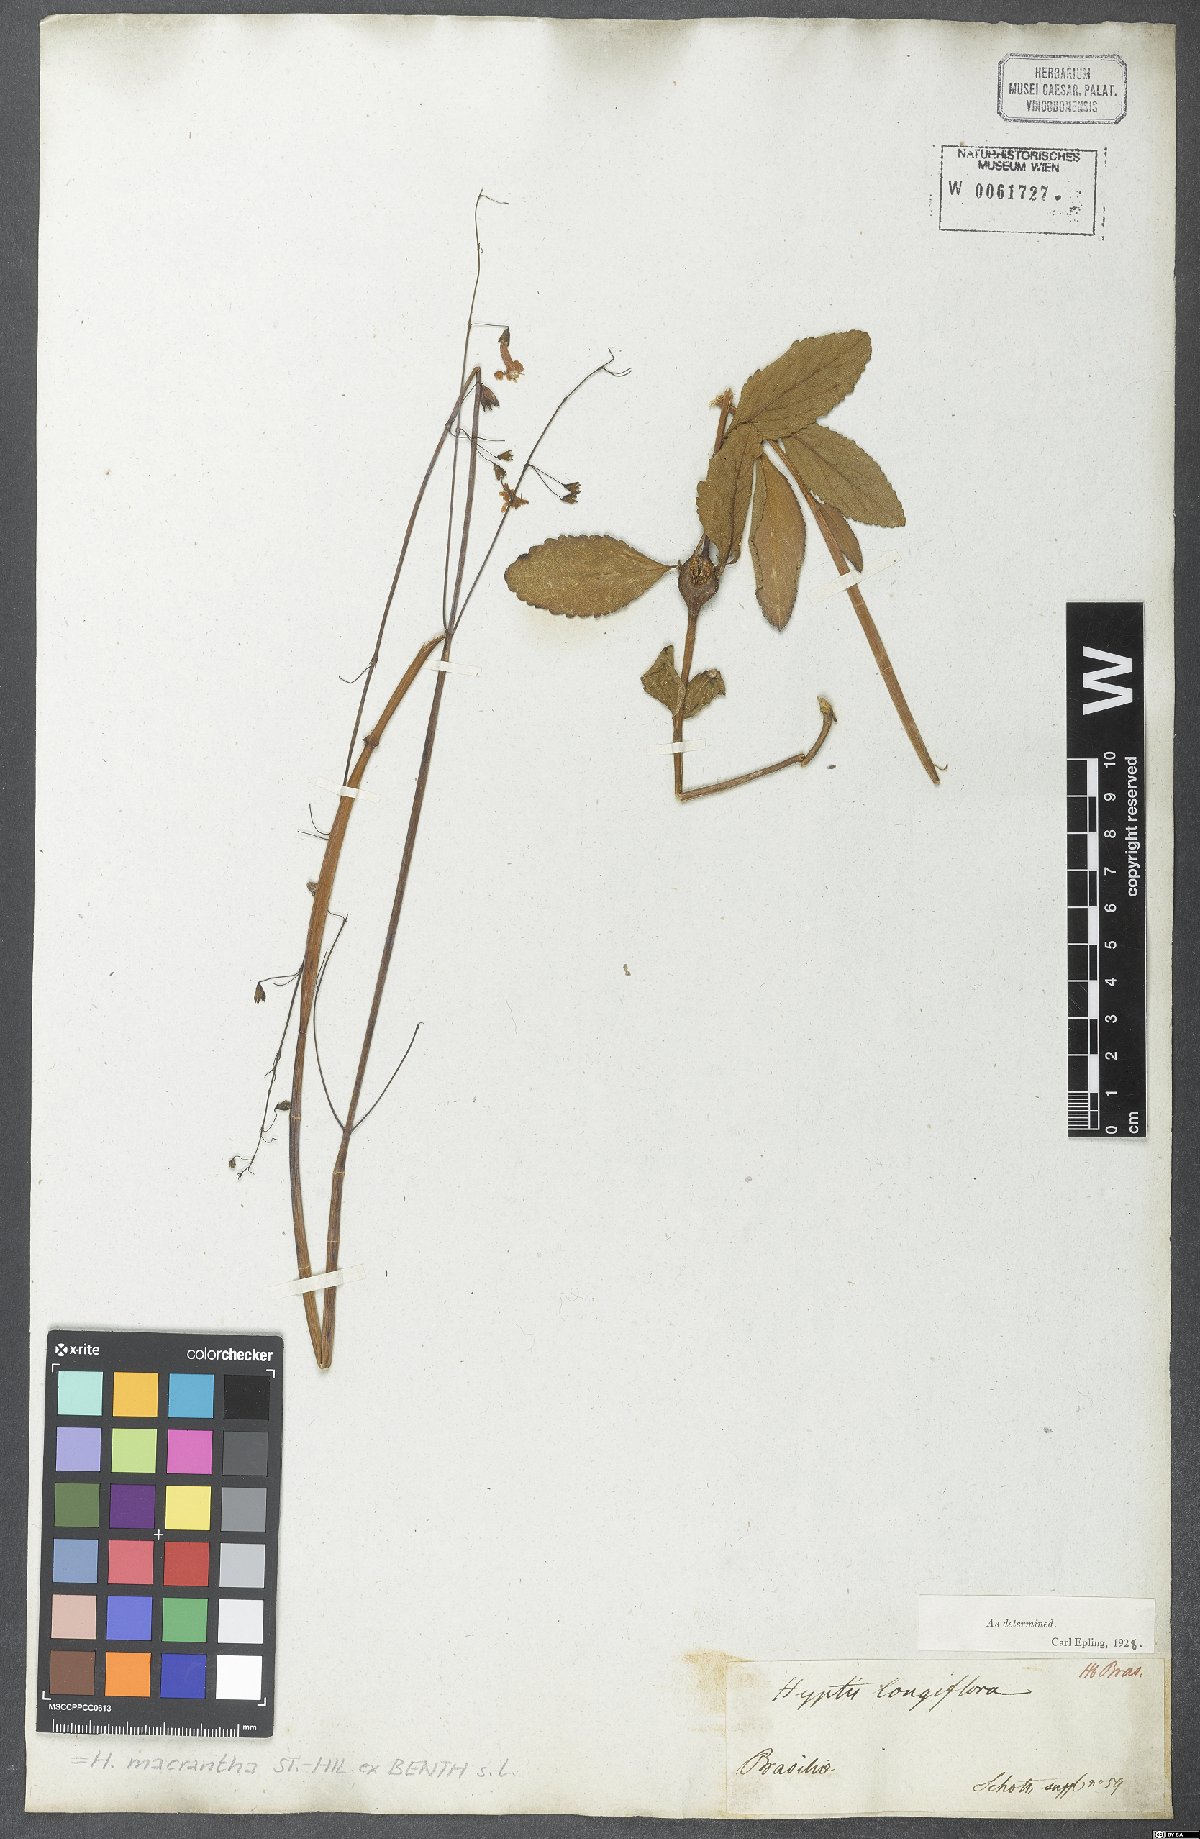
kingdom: Plantae
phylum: Tracheophyta
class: Magnoliopsida
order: Lamiales
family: Lamiaceae
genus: Hypenia
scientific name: Hypenia macrantha
